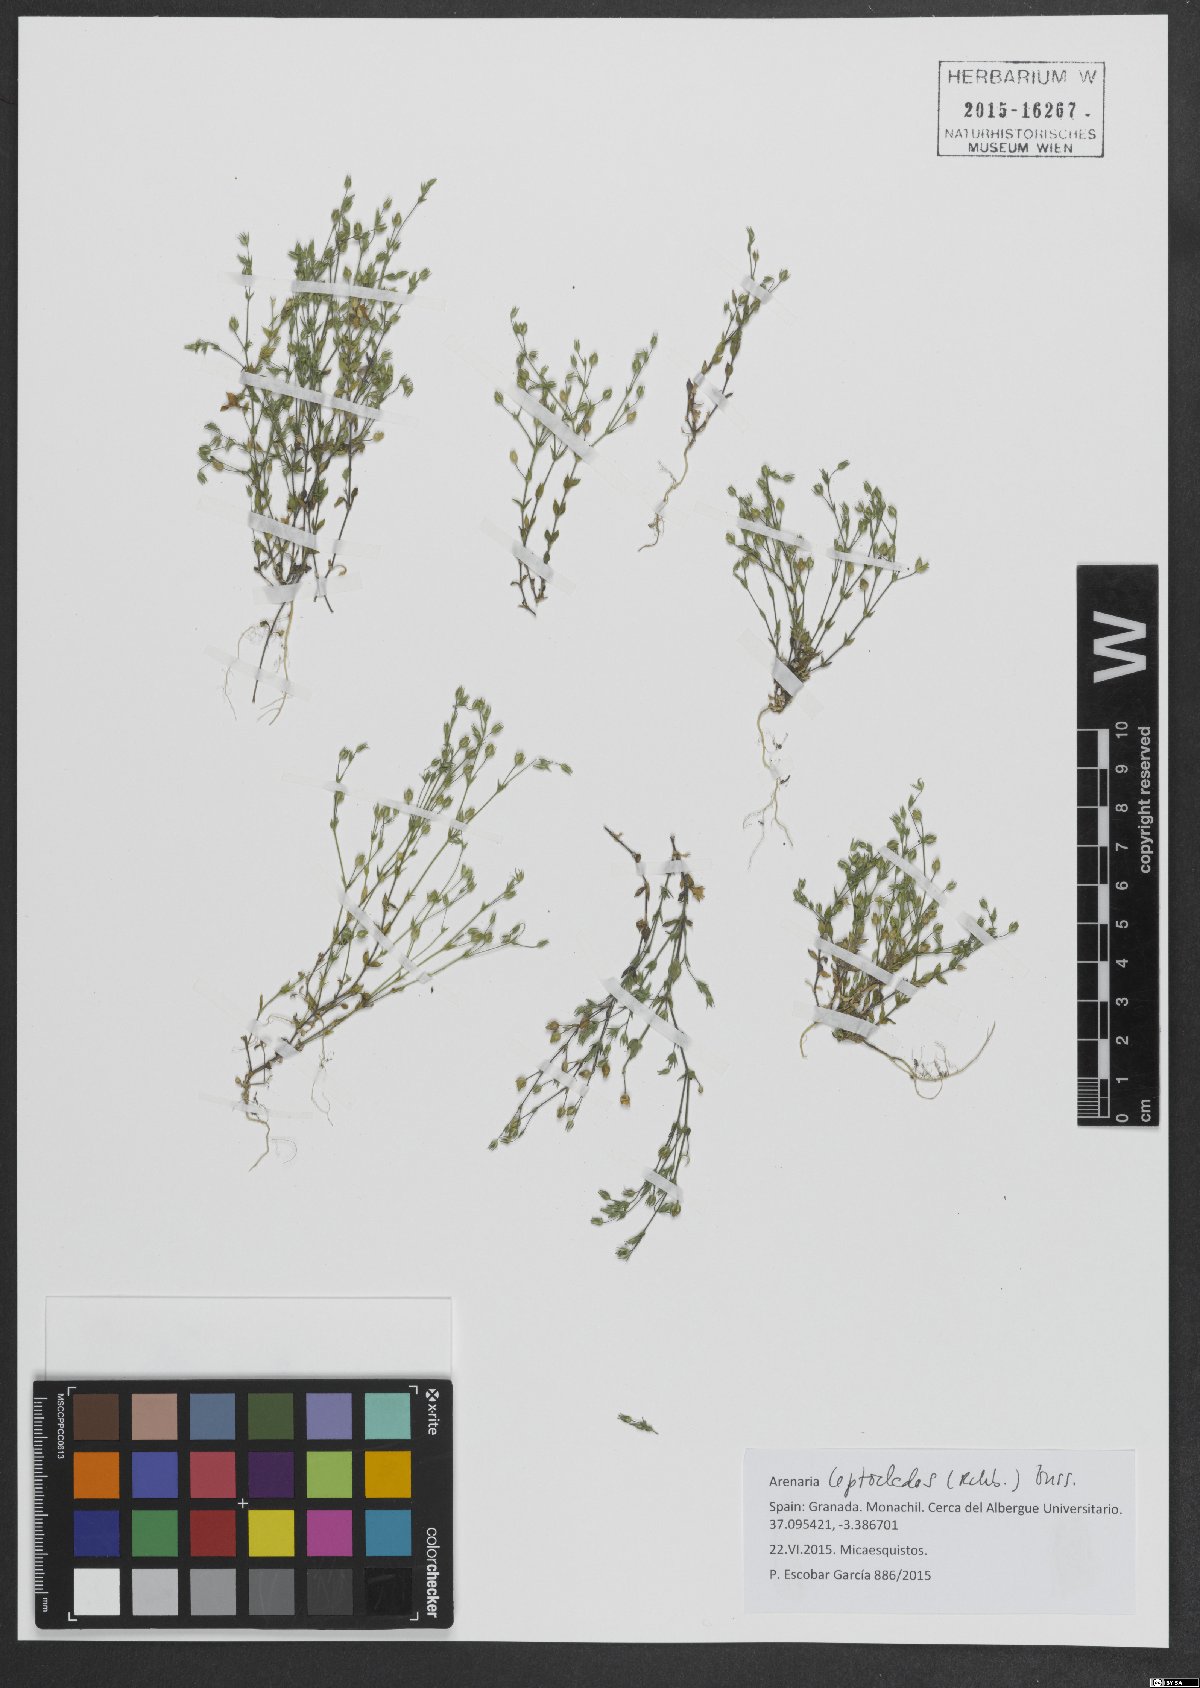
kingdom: Plantae
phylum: Tracheophyta
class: Magnoliopsida
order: Caryophyllales
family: Caryophyllaceae
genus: Arenaria
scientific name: Arenaria leptoclados
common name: Thyme-leaved sandwort
